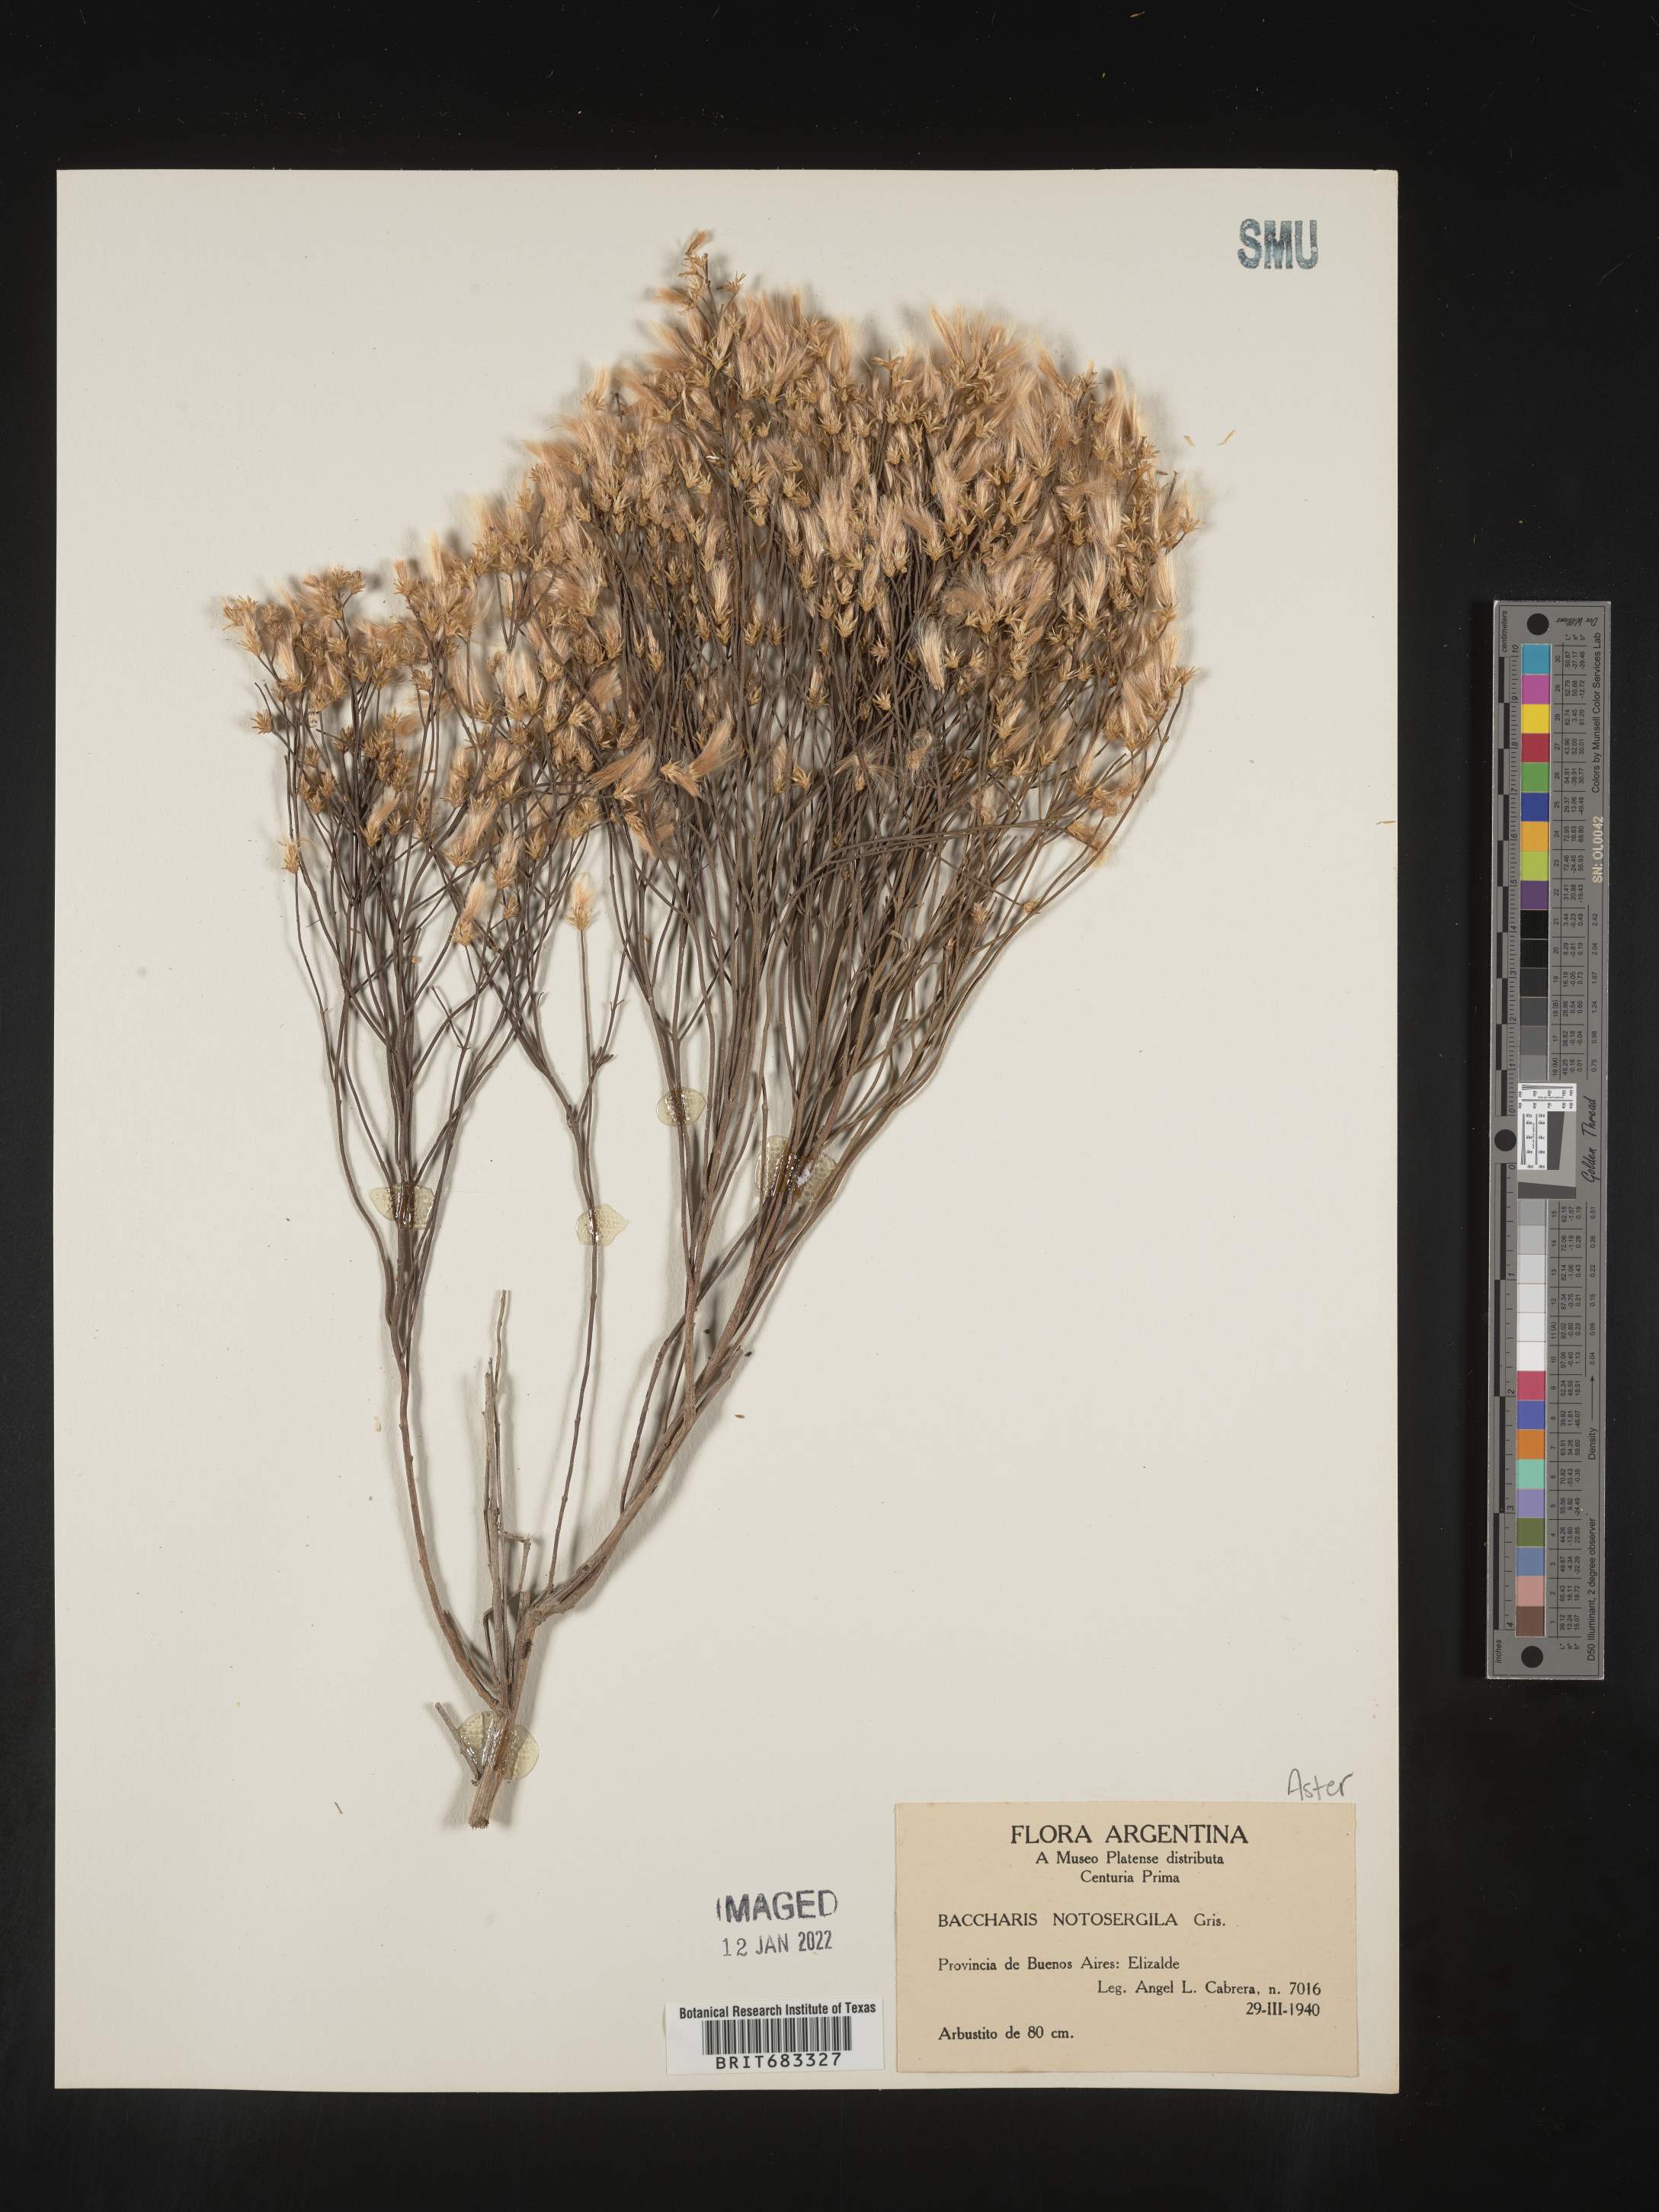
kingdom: Plantae
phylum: Tracheophyta
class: Magnoliopsida
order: Asterales
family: Asteraceae
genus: Baccharis
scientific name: Baccharis
